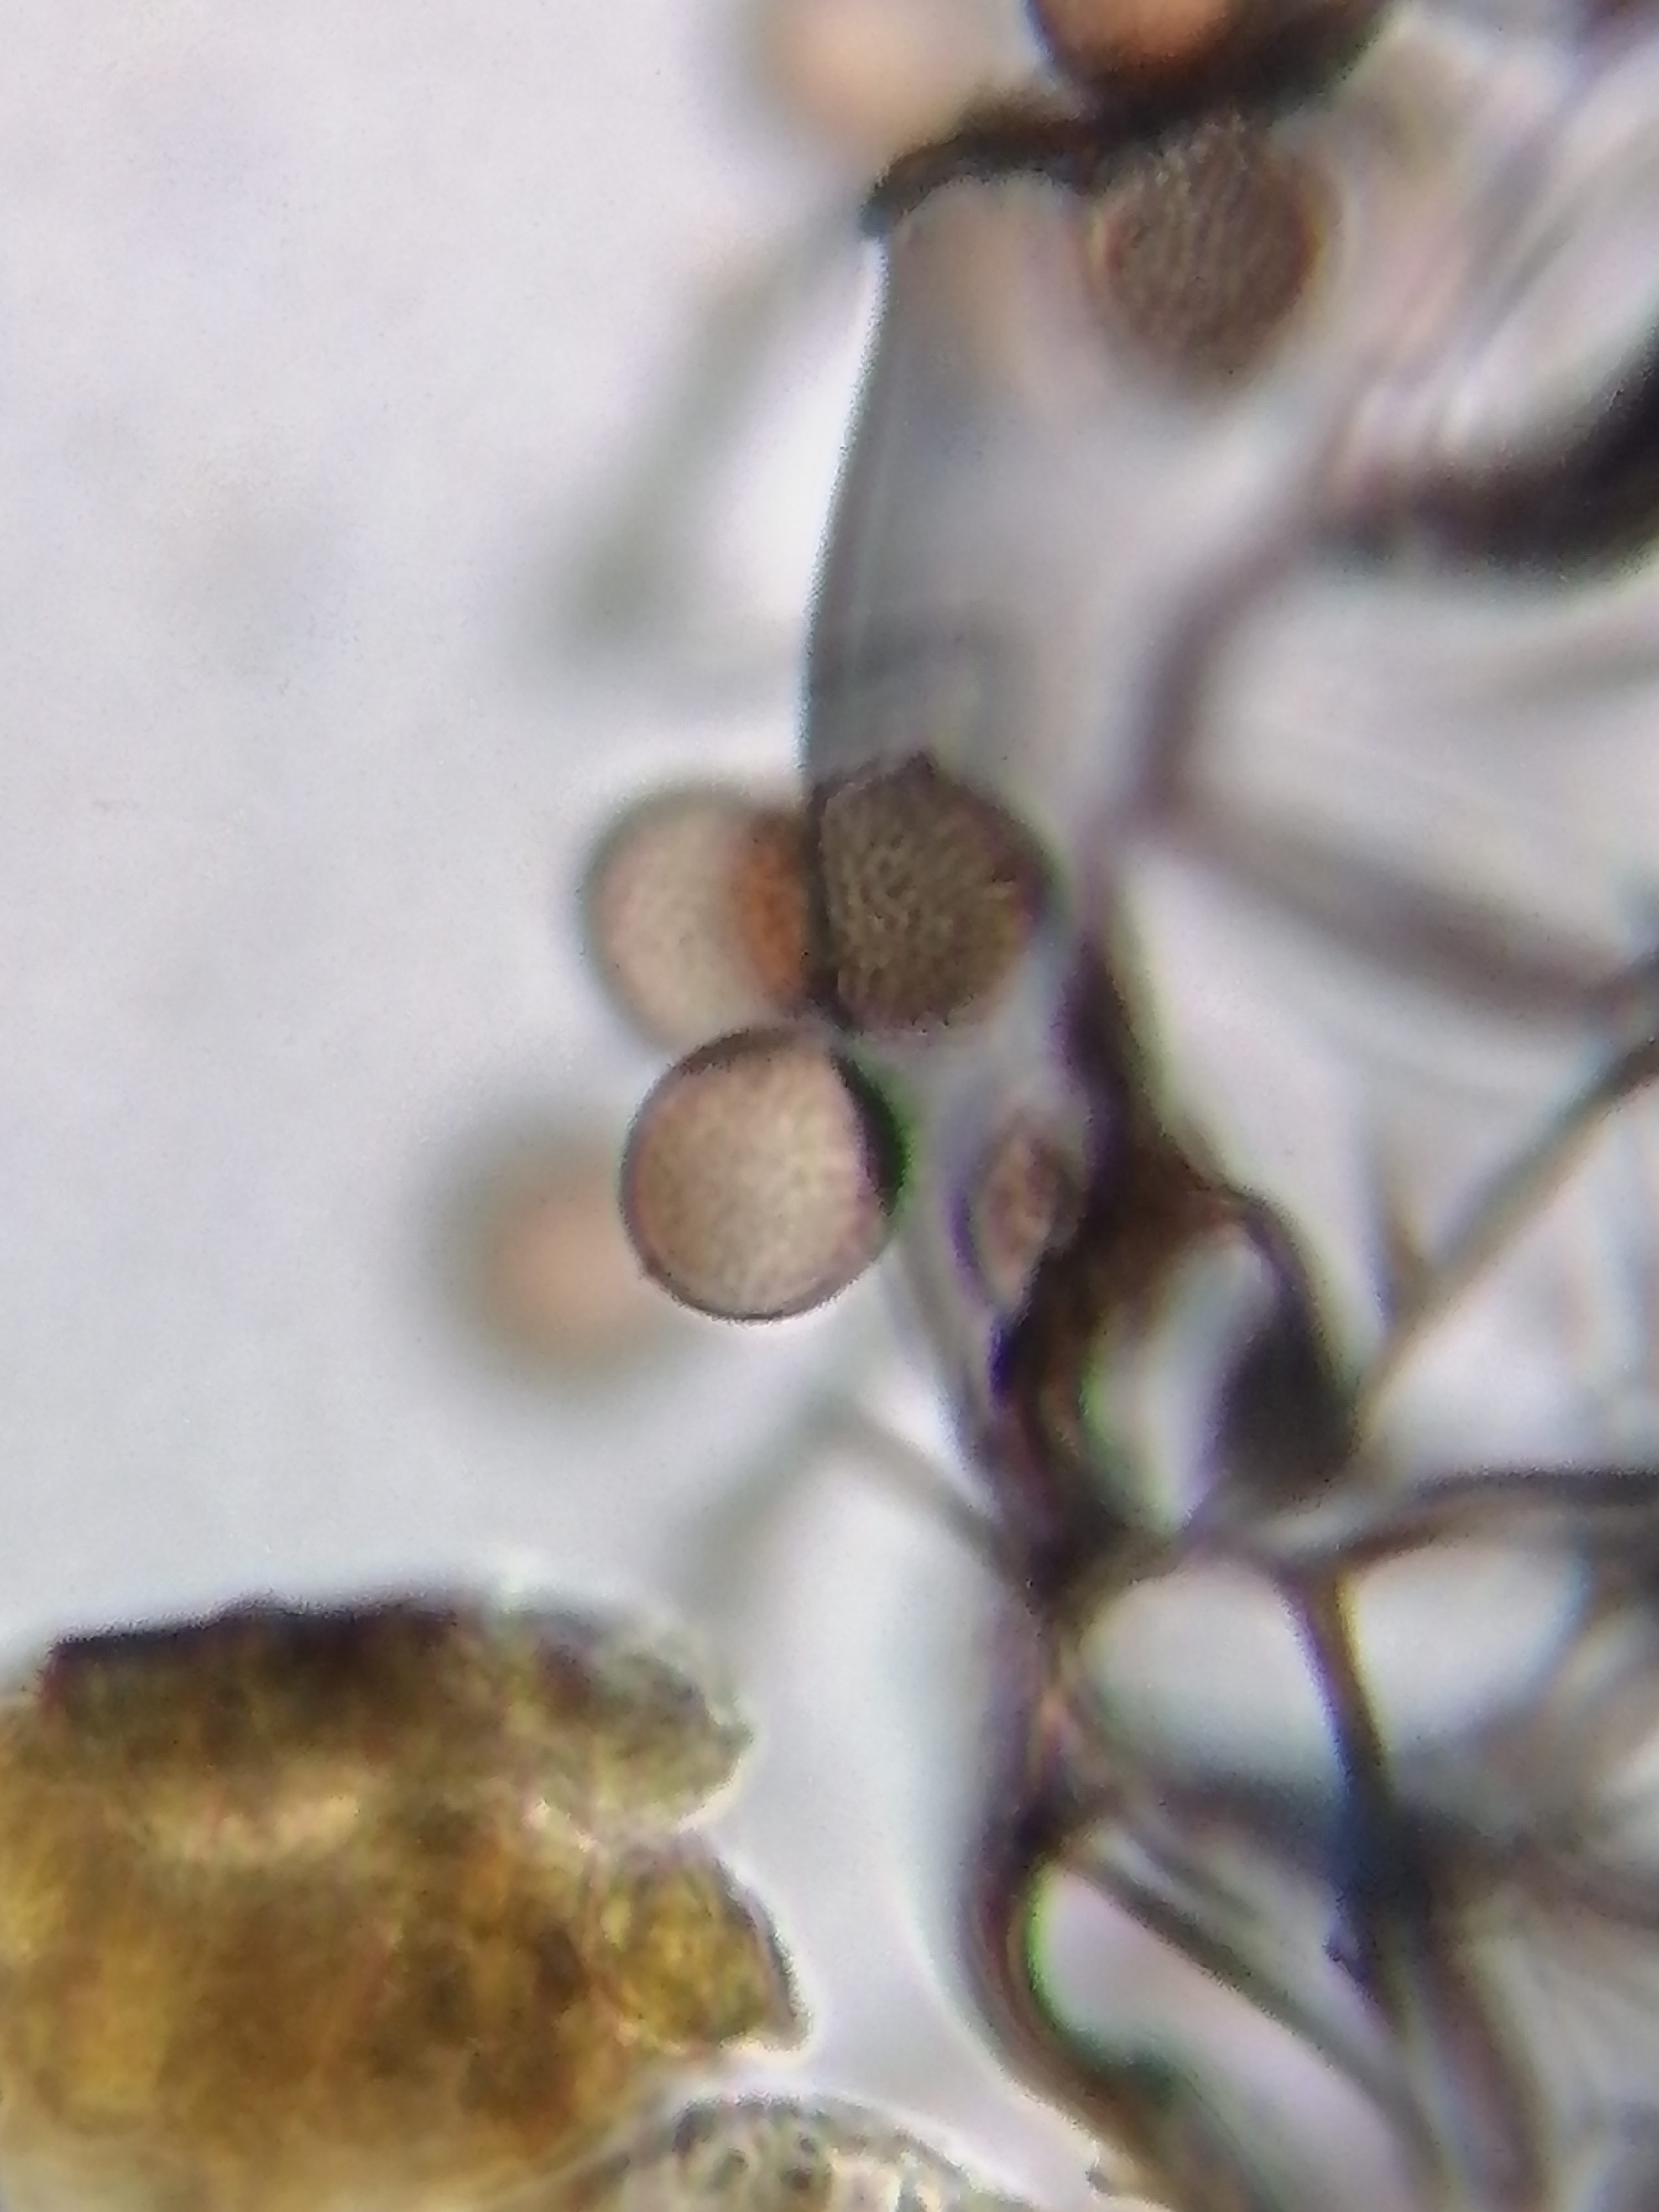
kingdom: Protozoa
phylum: Mycetozoa
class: Myxomycetes
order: Stemonitidales
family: Stemonitidaceae
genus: Comatricha
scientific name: Comatricha nigra
